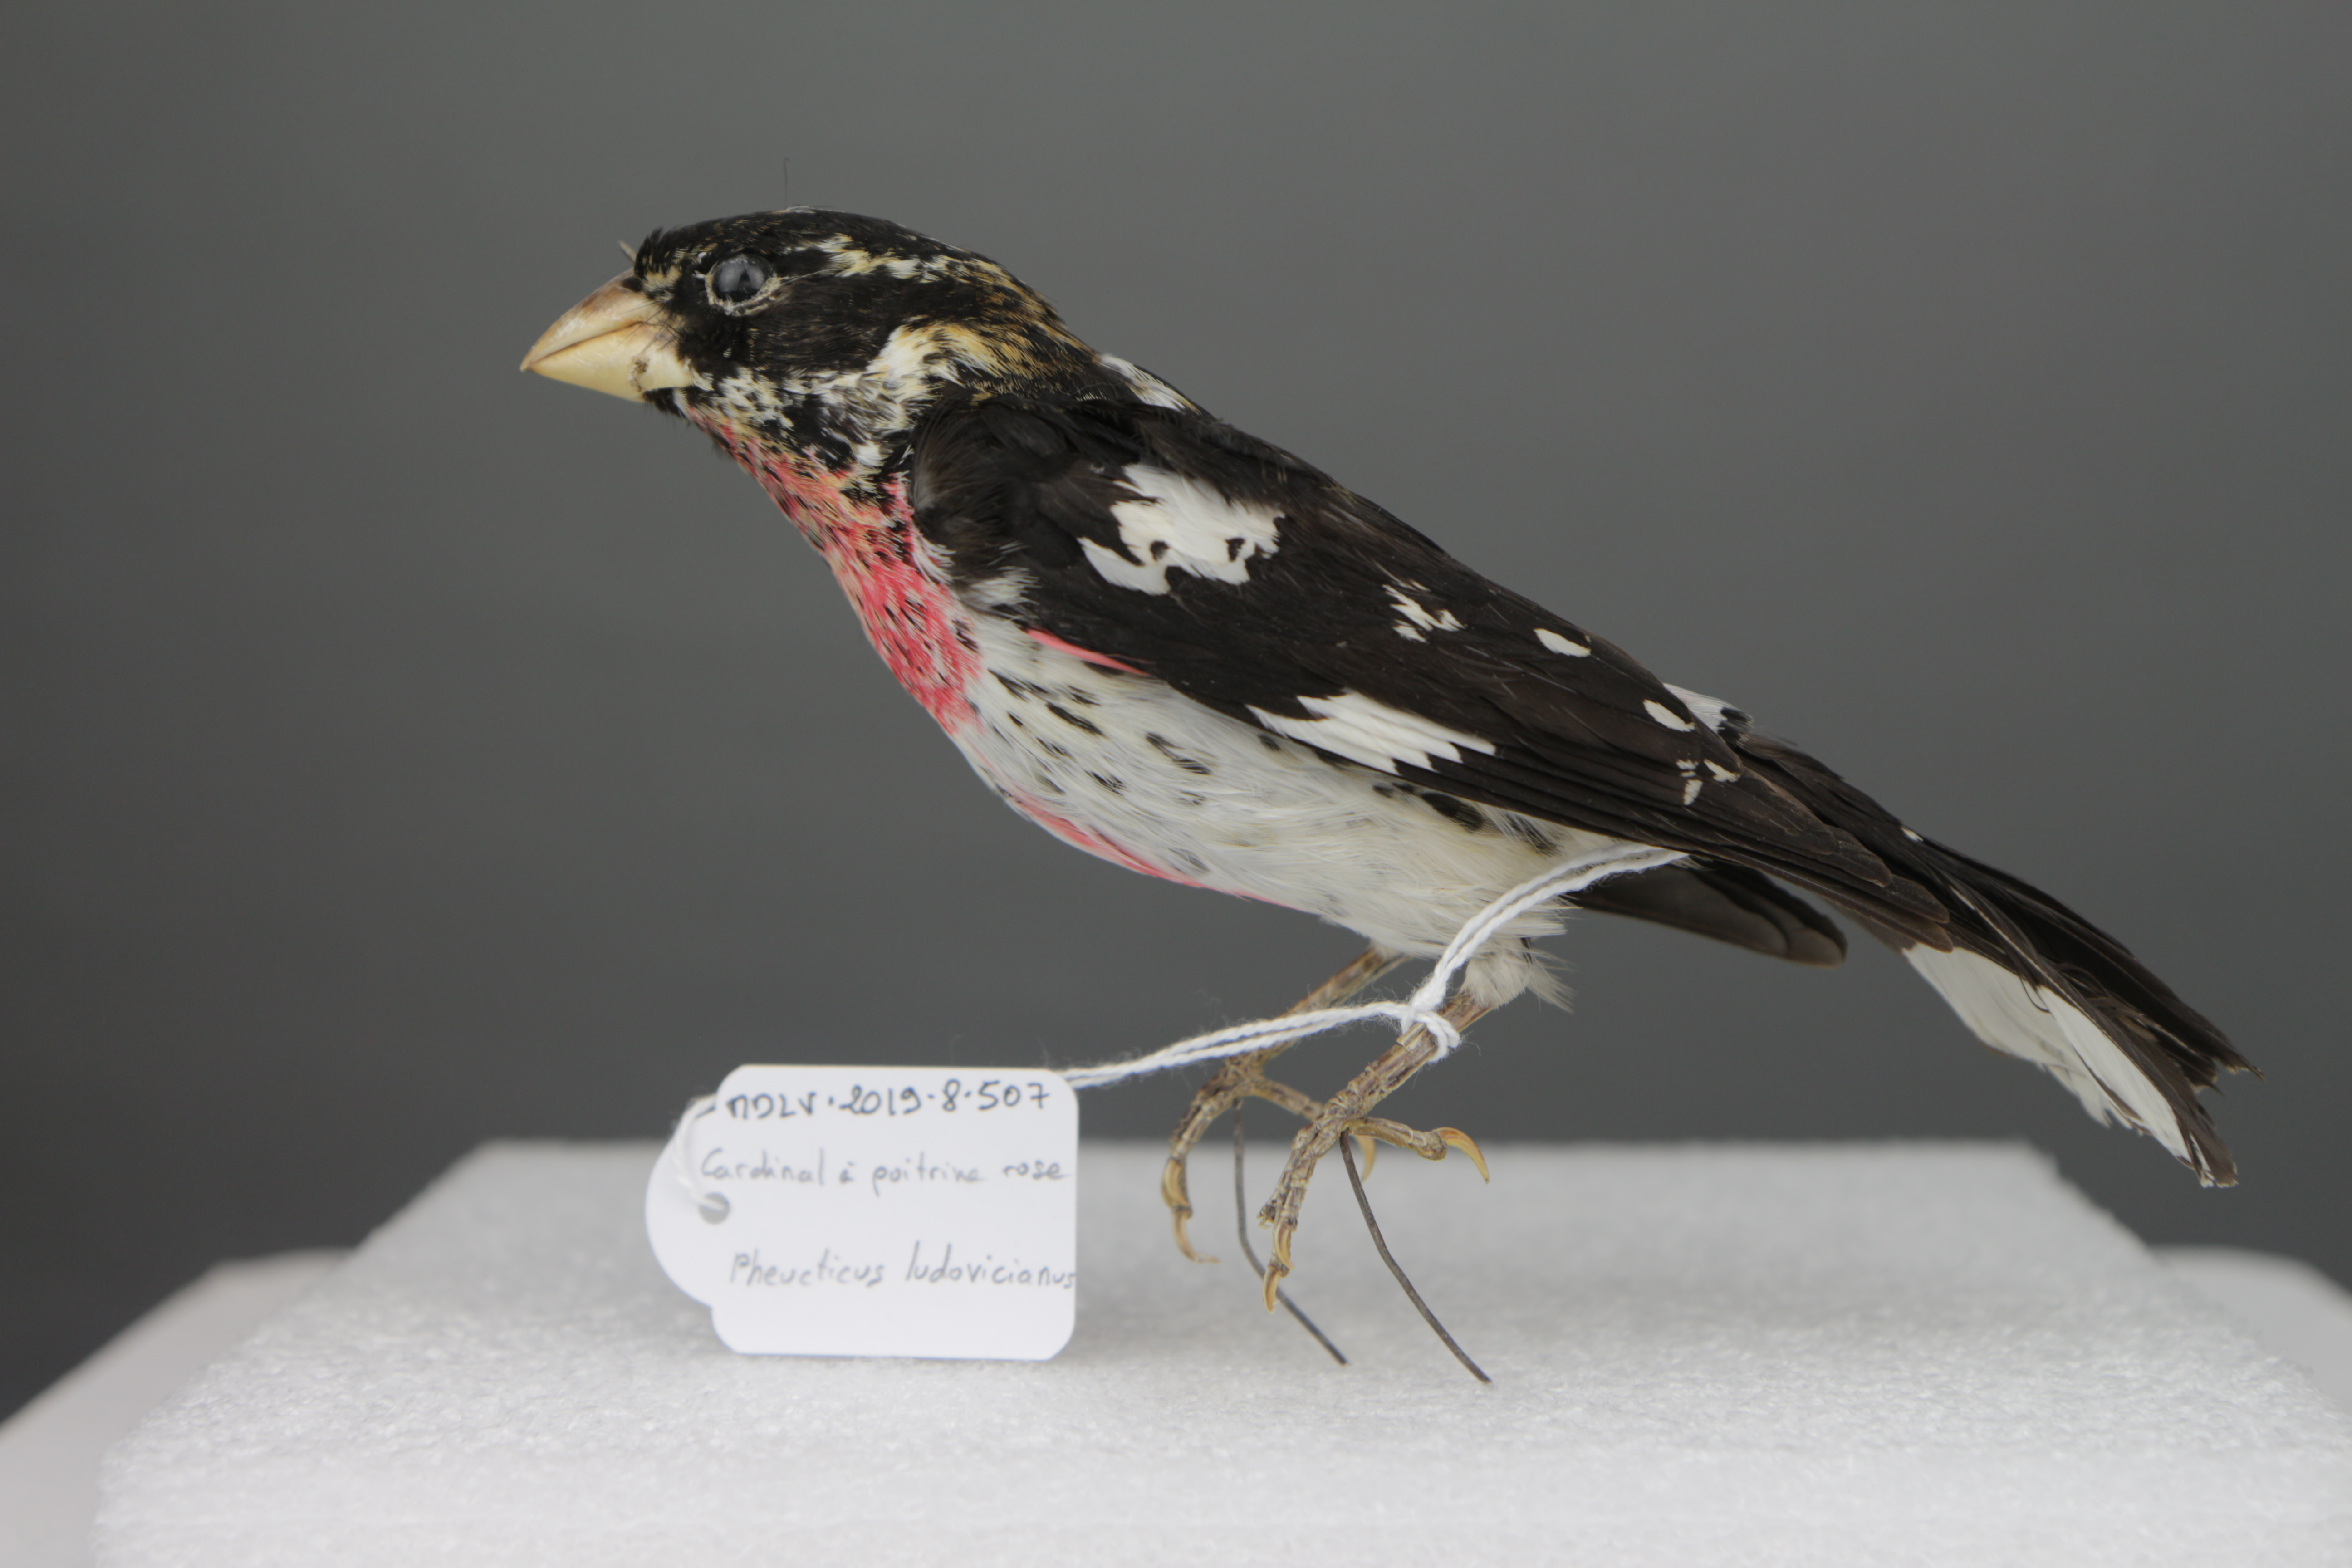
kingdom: Animalia
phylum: Chordata
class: Aves
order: Passeriformes
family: Cardinalidae
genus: Pheucticus
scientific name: Pheucticus ludovicianus
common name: Rose-breasted grosbeak
